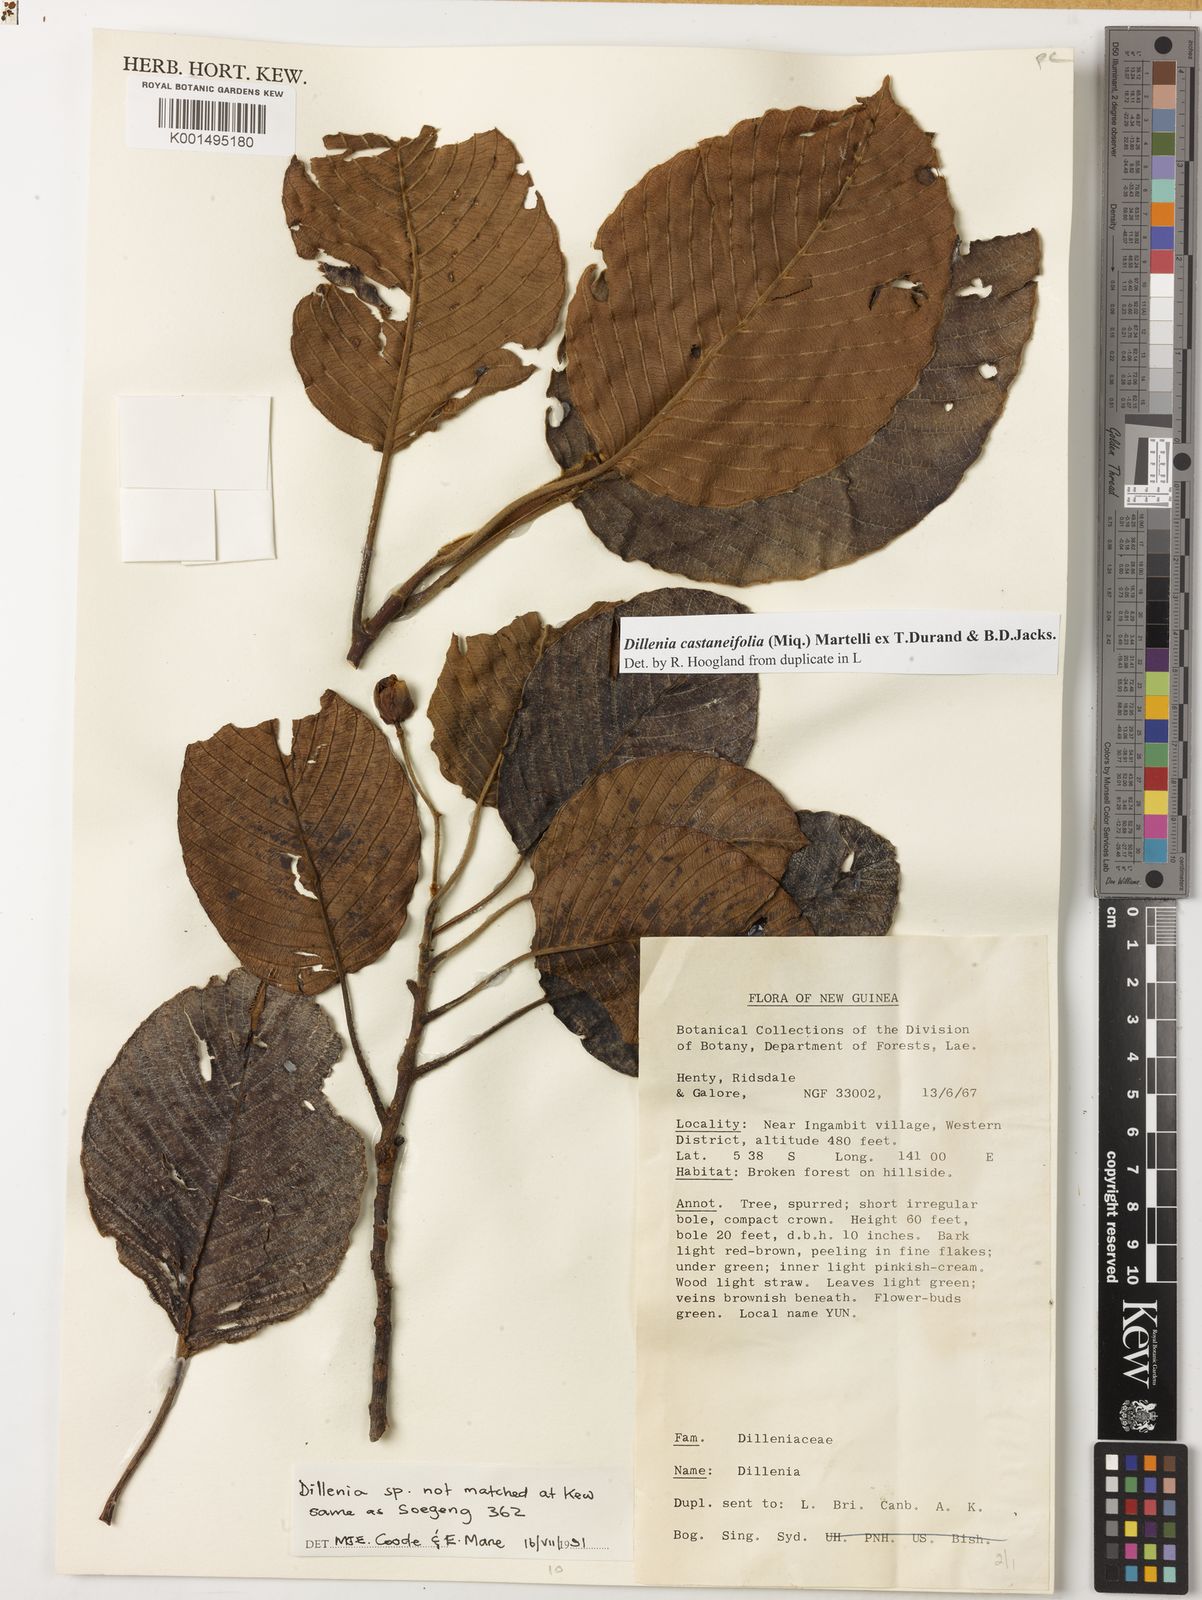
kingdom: Plantae
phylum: Tracheophyta
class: Magnoliopsida
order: Dilleniales
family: Dilleniaceae
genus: Dillenia
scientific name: Dillenia castaneifolia
